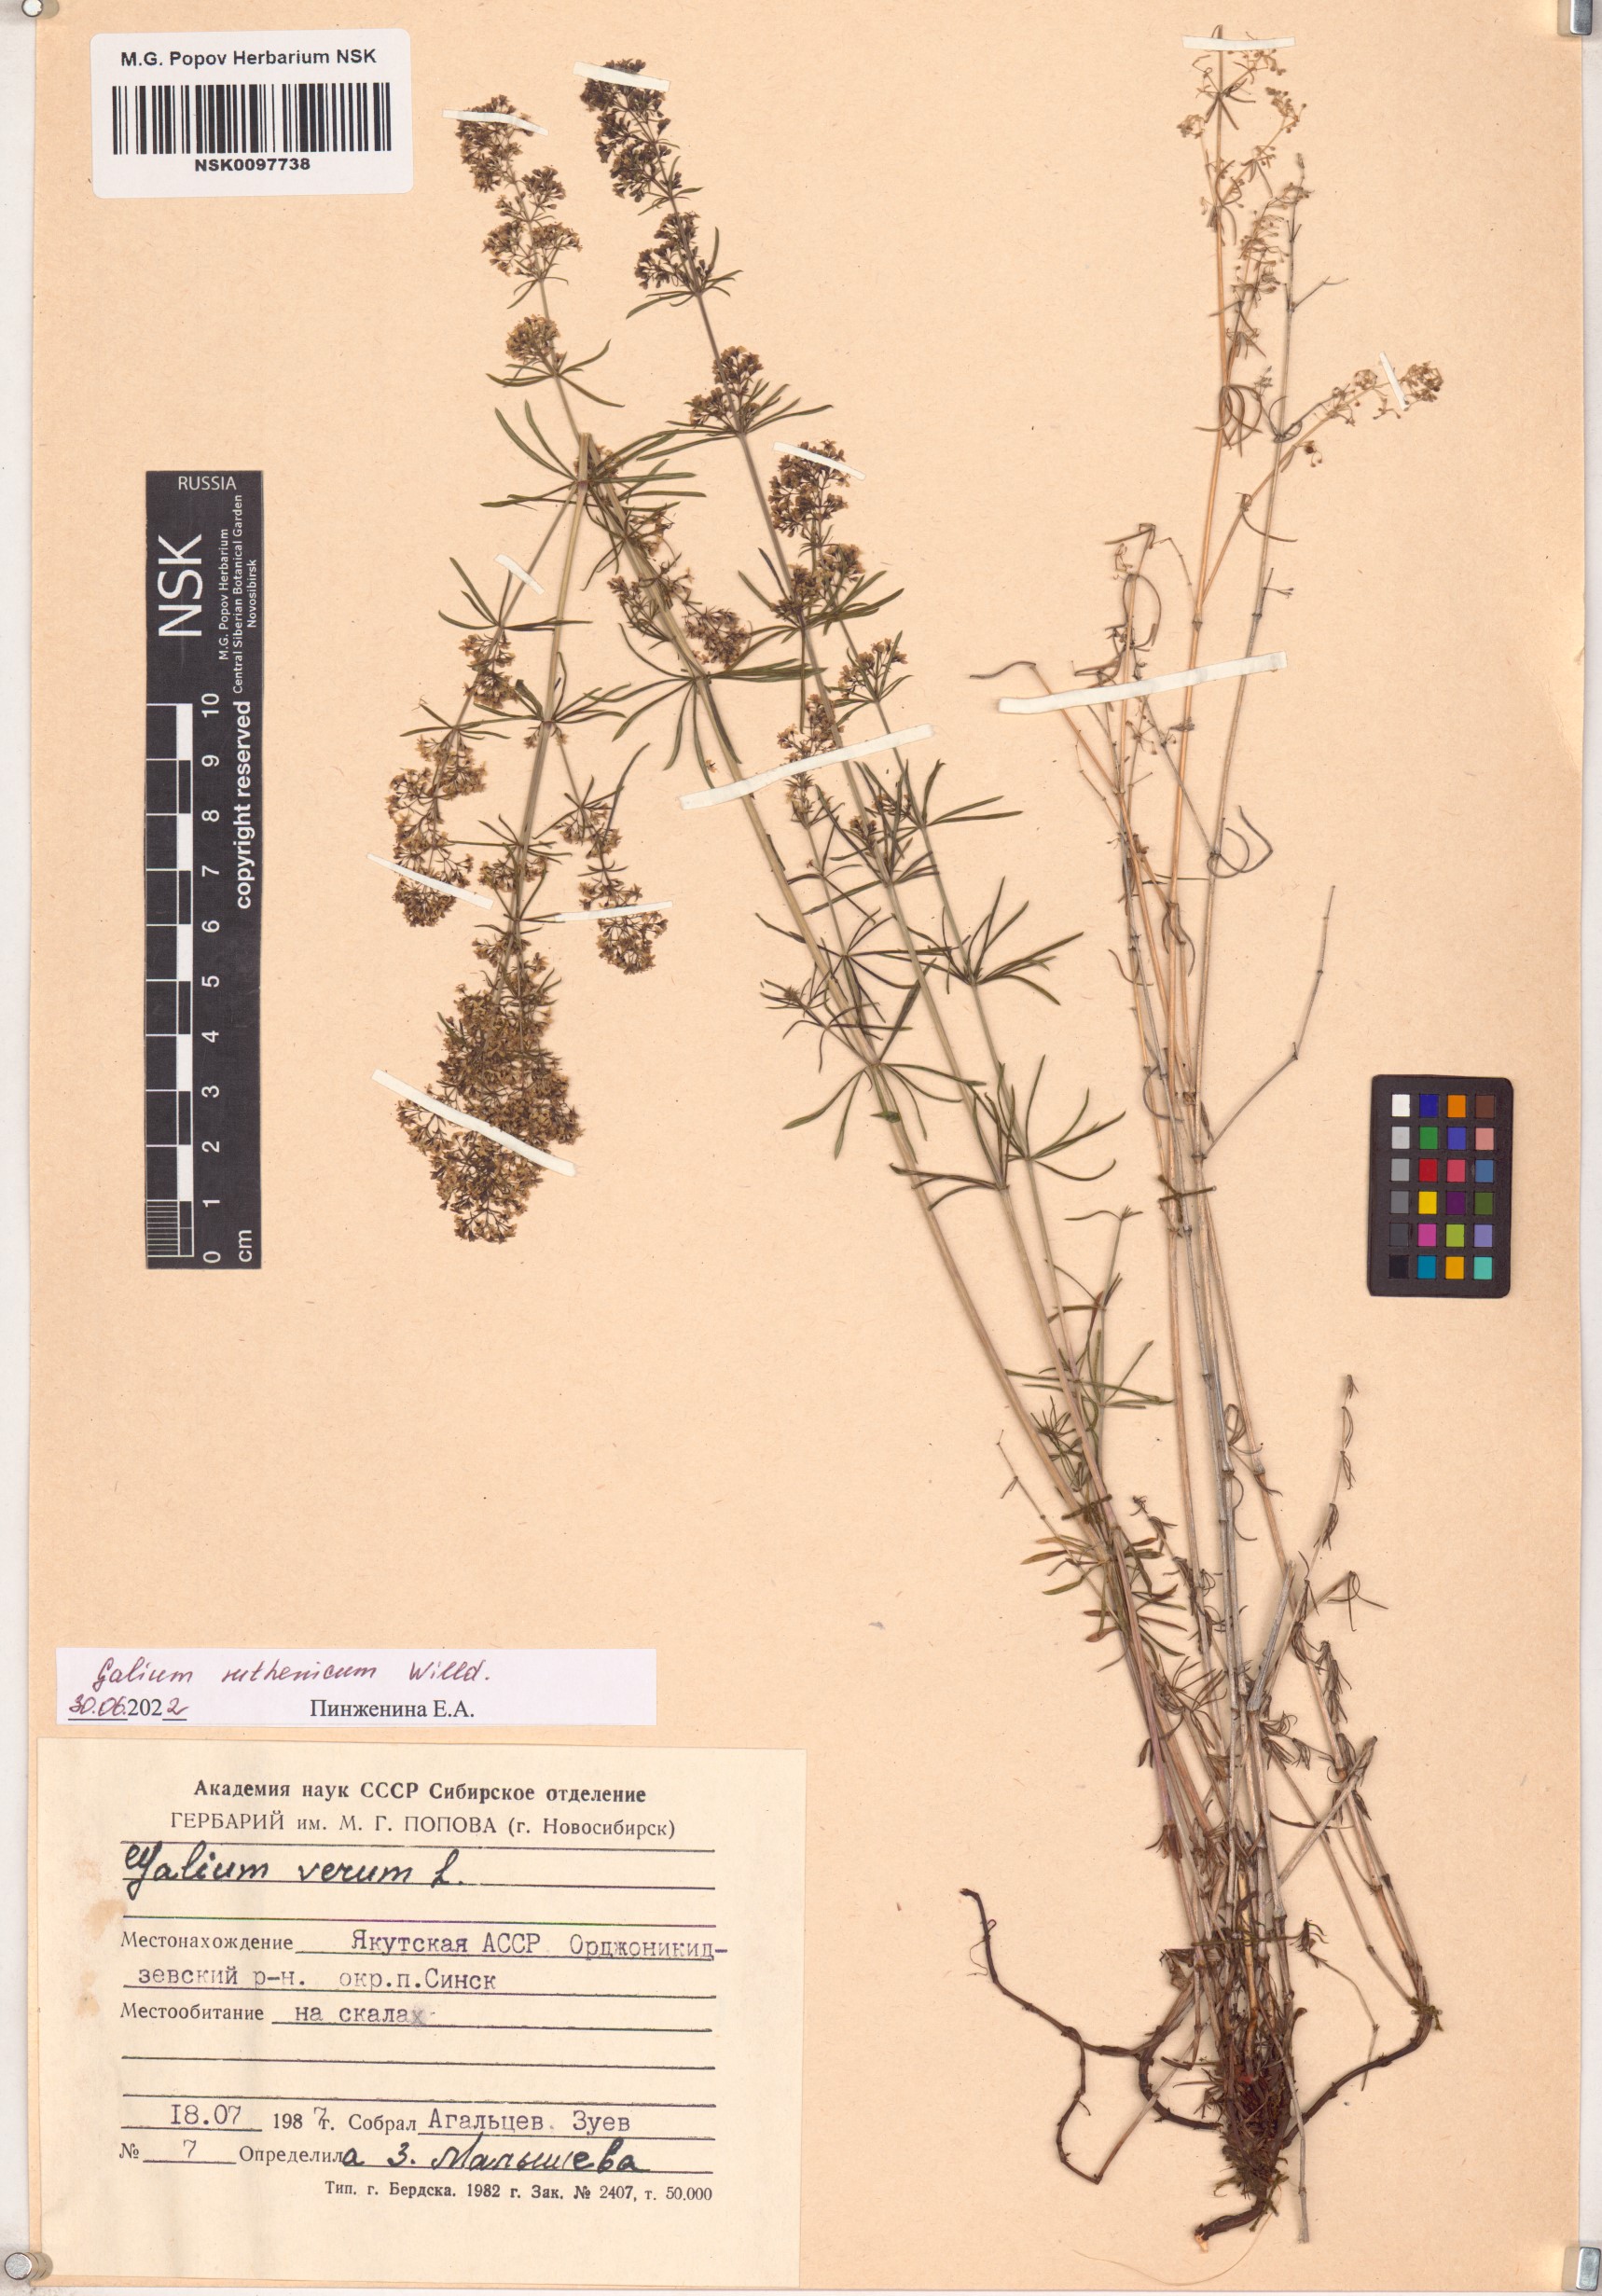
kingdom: Plantae
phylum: Tracheophyta
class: Magnoliopsida
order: Gentianales
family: Rubiaceae
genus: Galium
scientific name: Galium verum
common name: Lady's bedstraw
